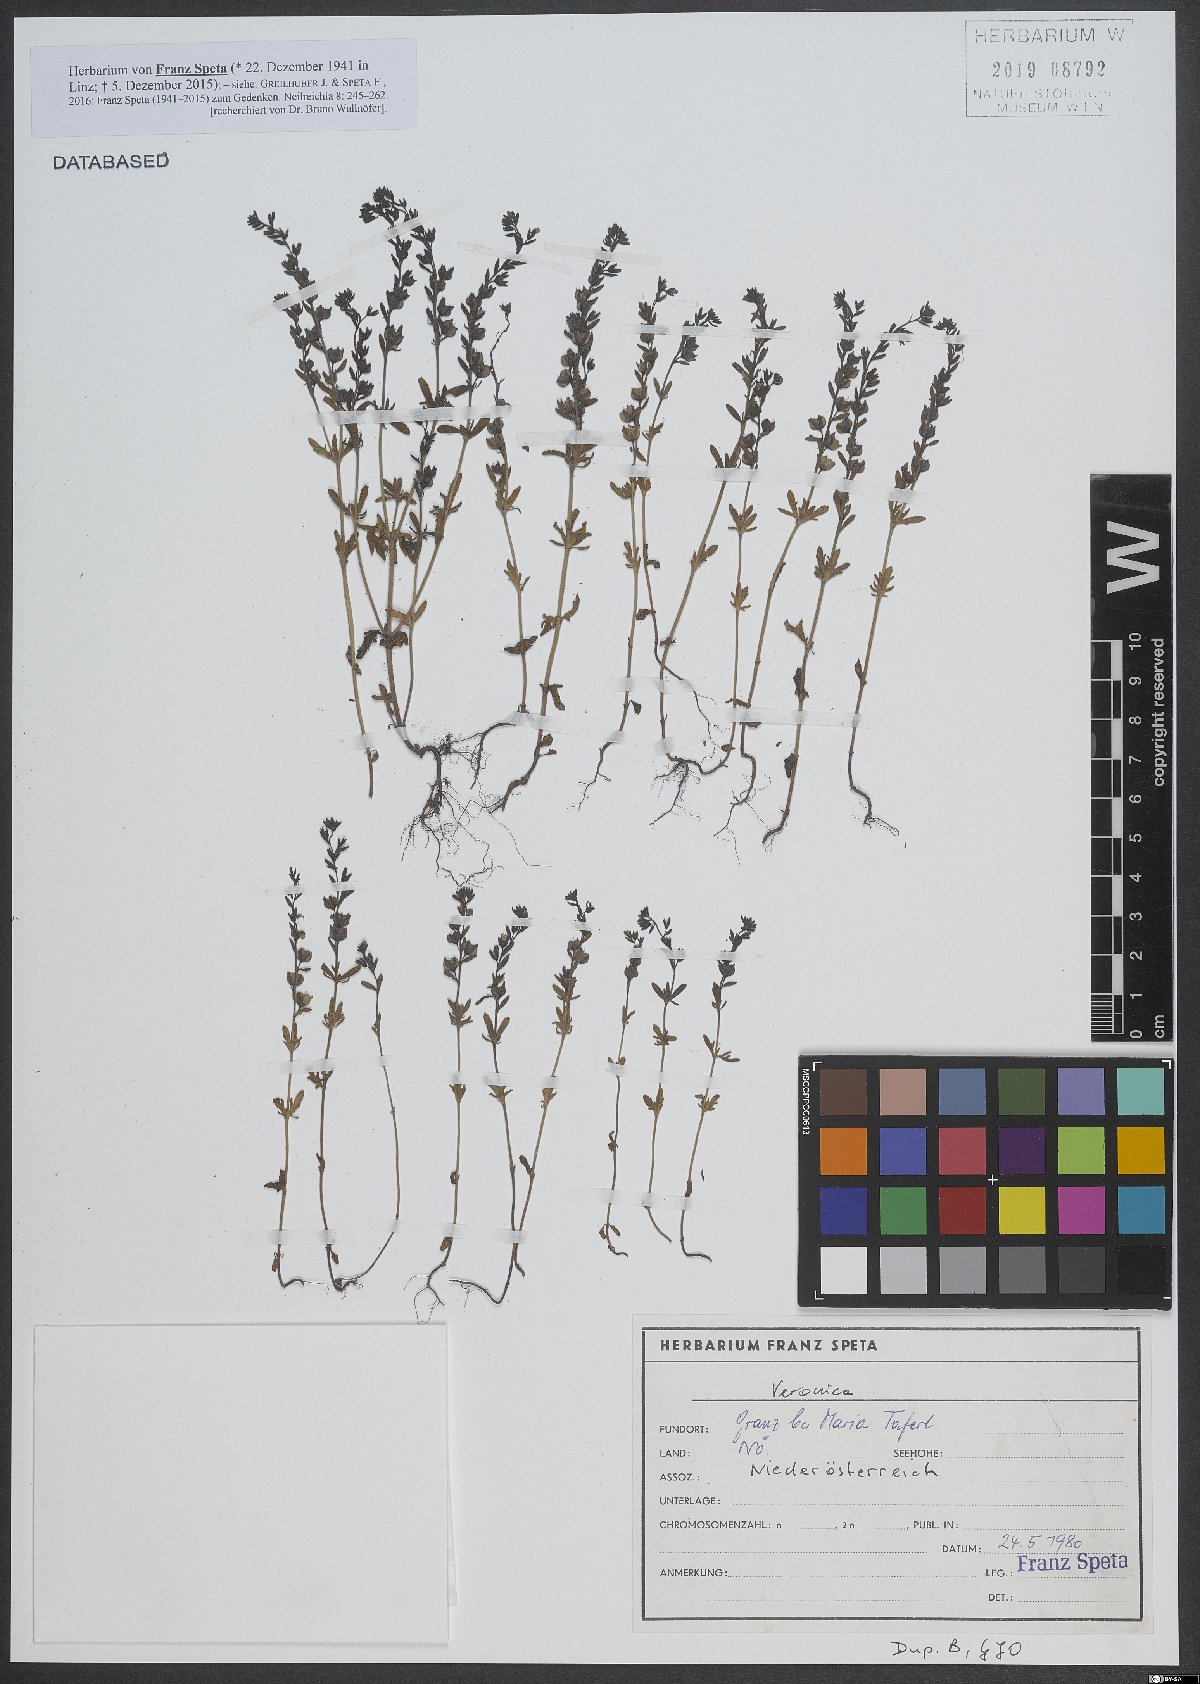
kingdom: Plantae
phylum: Tracheophyta
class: Magnoliopsida
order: Lamiales
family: Plantaginaceae
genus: Veronica
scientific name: Veronica
